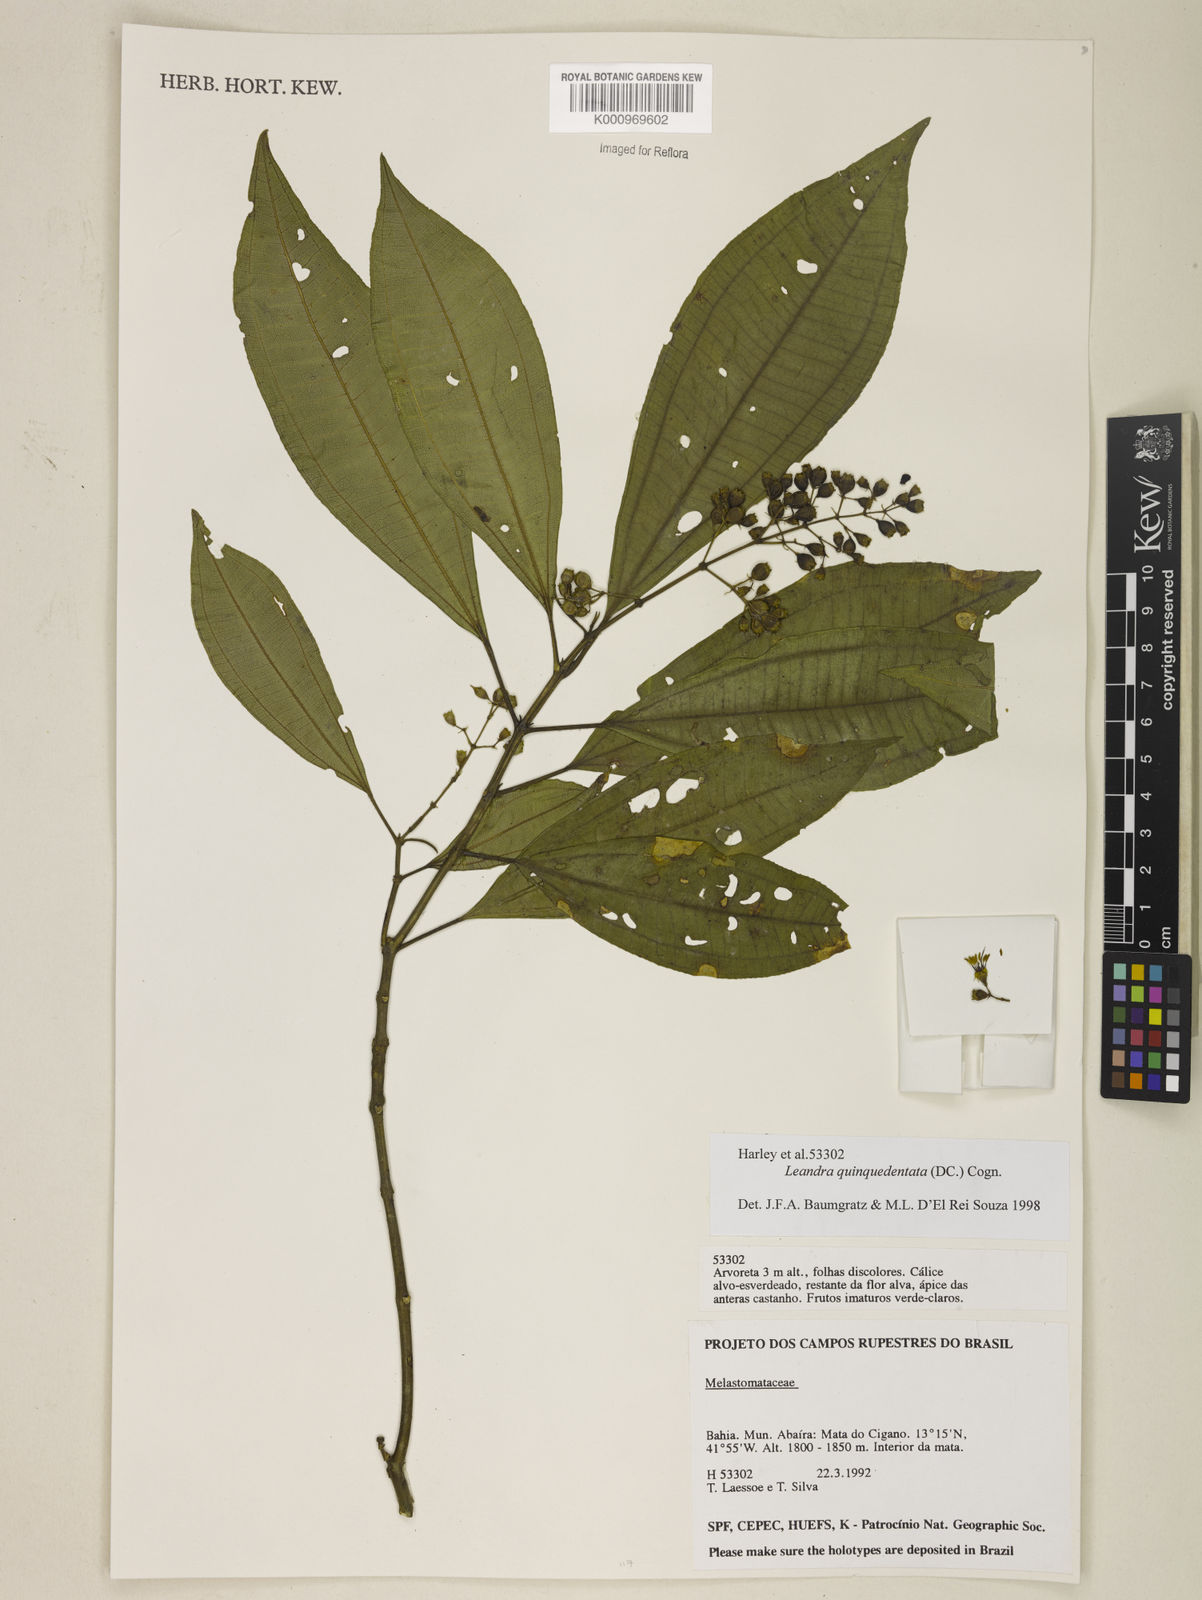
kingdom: Plantae
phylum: Tracheophyta
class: Magnoliopsida
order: Myrtales
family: Melastomataceae
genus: Miconia
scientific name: Miconia quinquedentata
